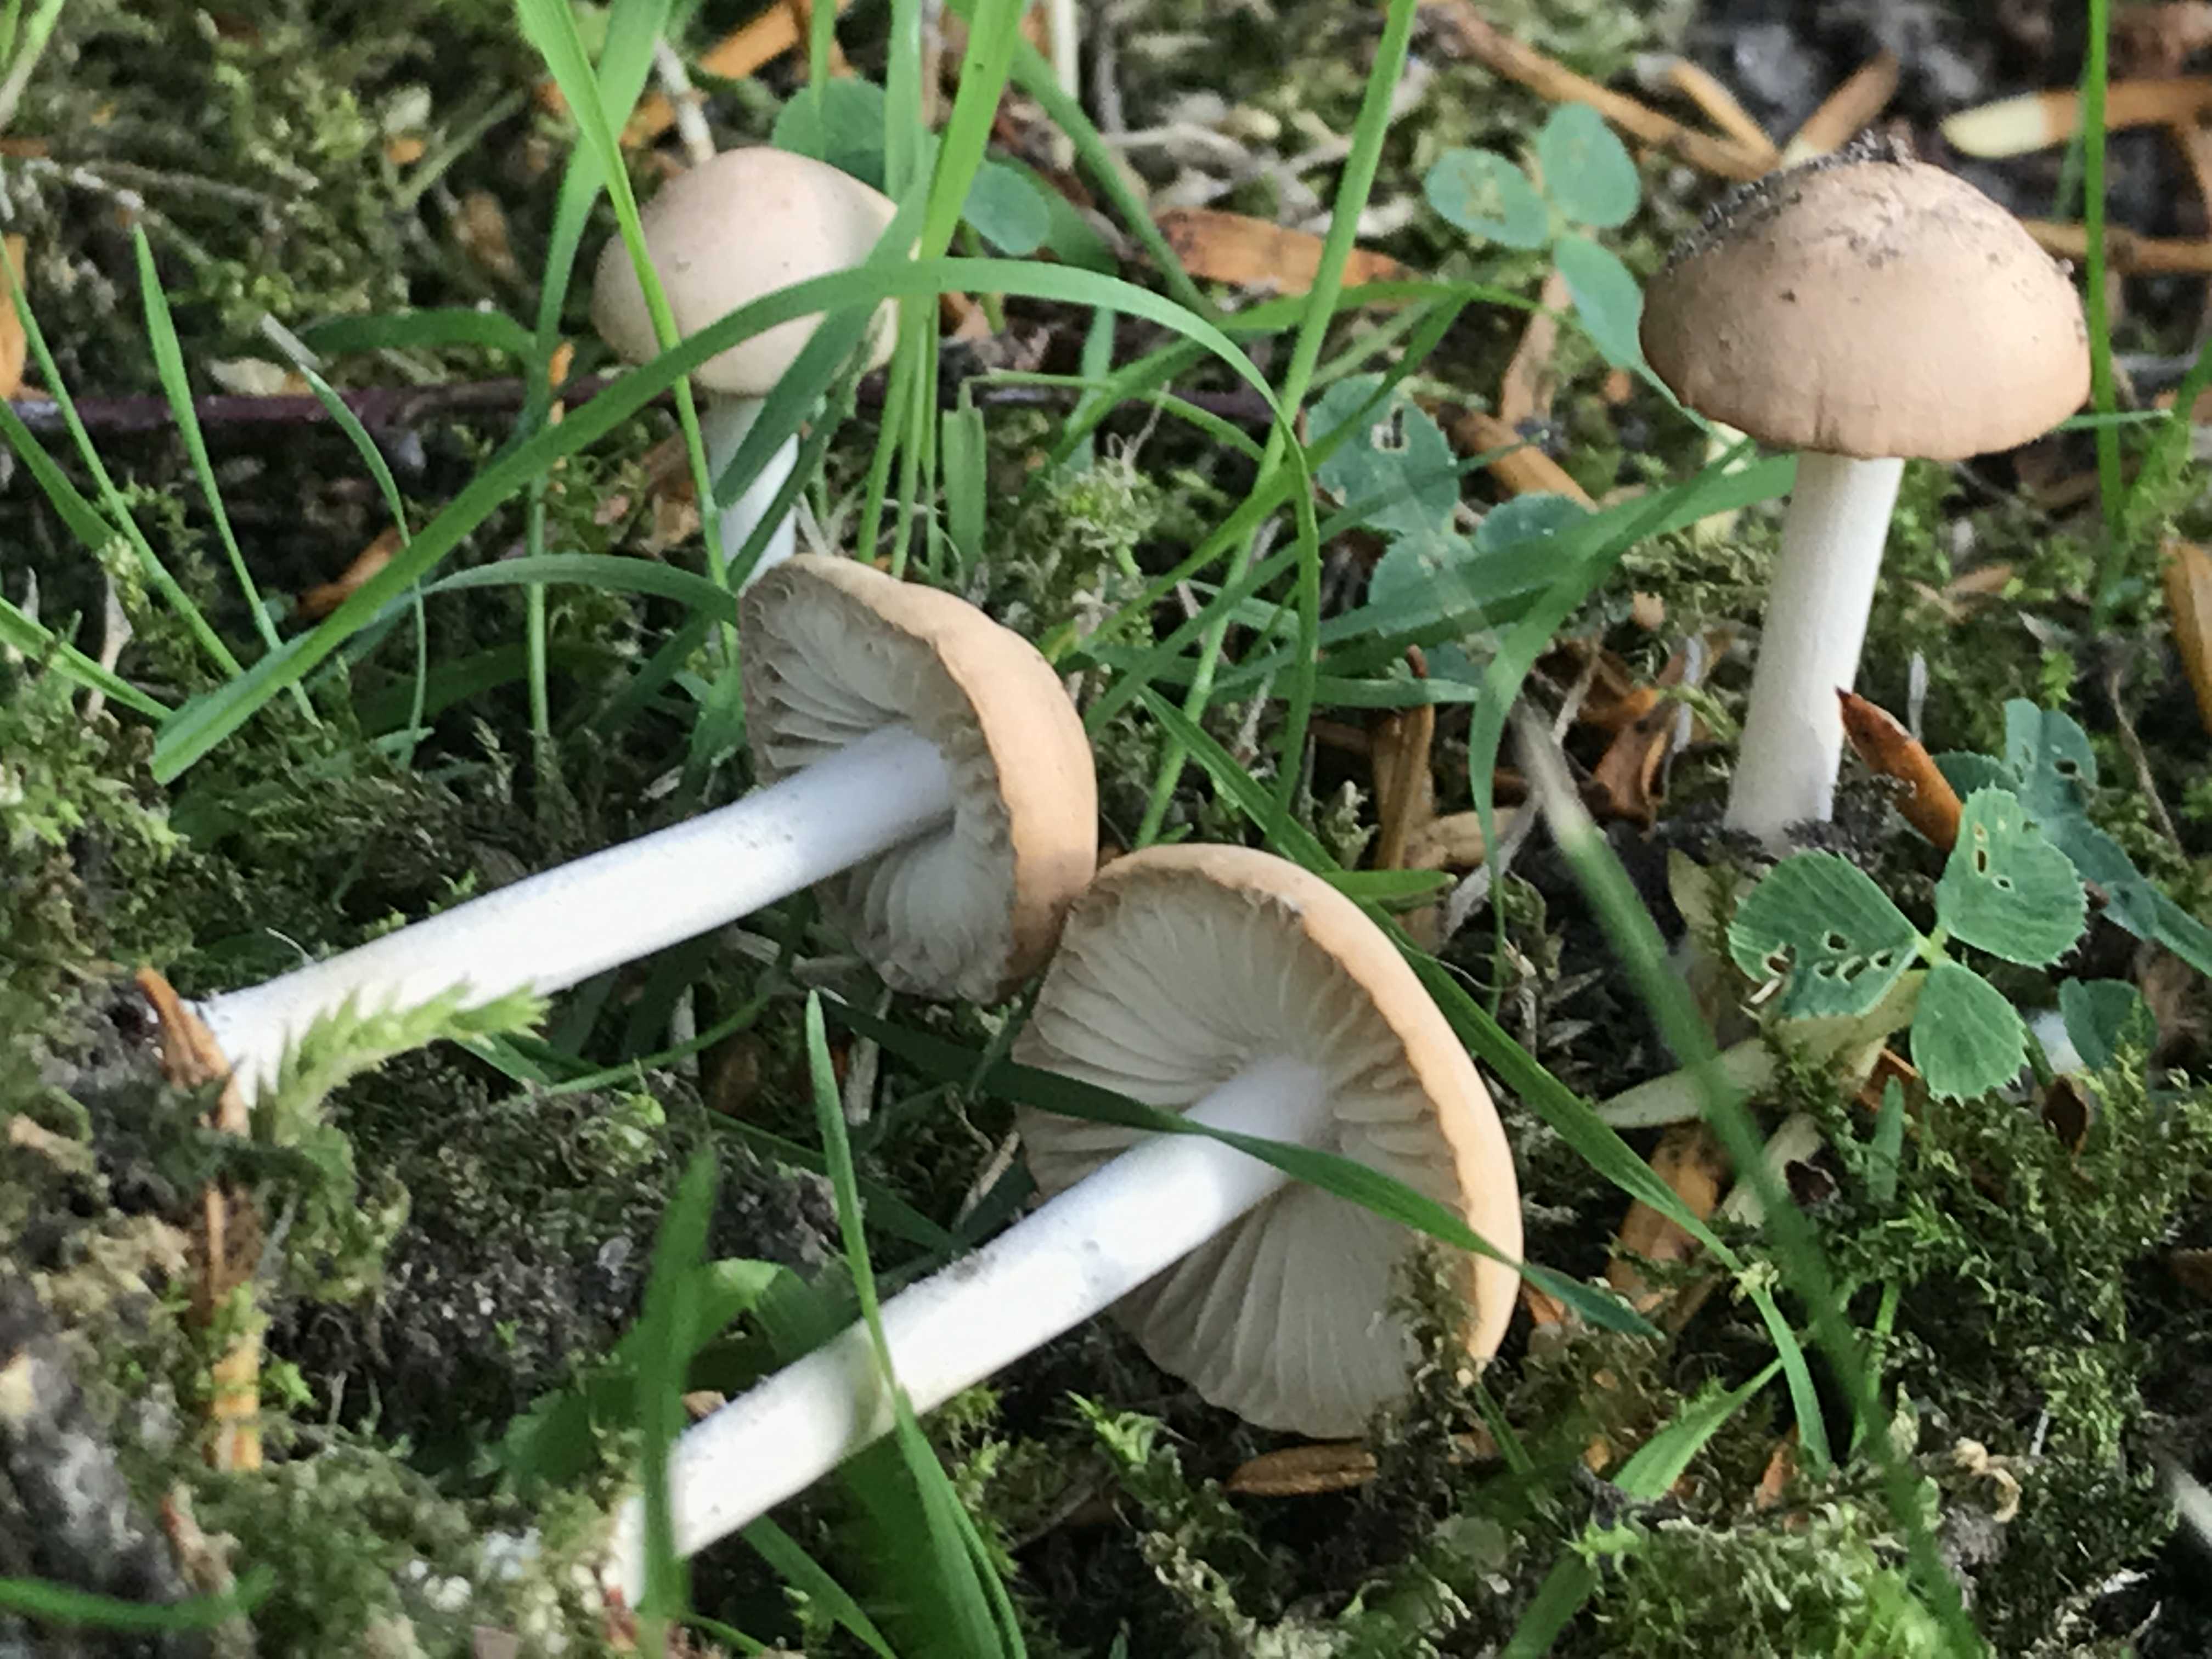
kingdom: Fungi
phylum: Basidiomycota
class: Agaricomycetes
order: Agaricales
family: Marasmiaceae
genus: Marasmius
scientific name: Marasmius oreades
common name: elledans-bruskhat
